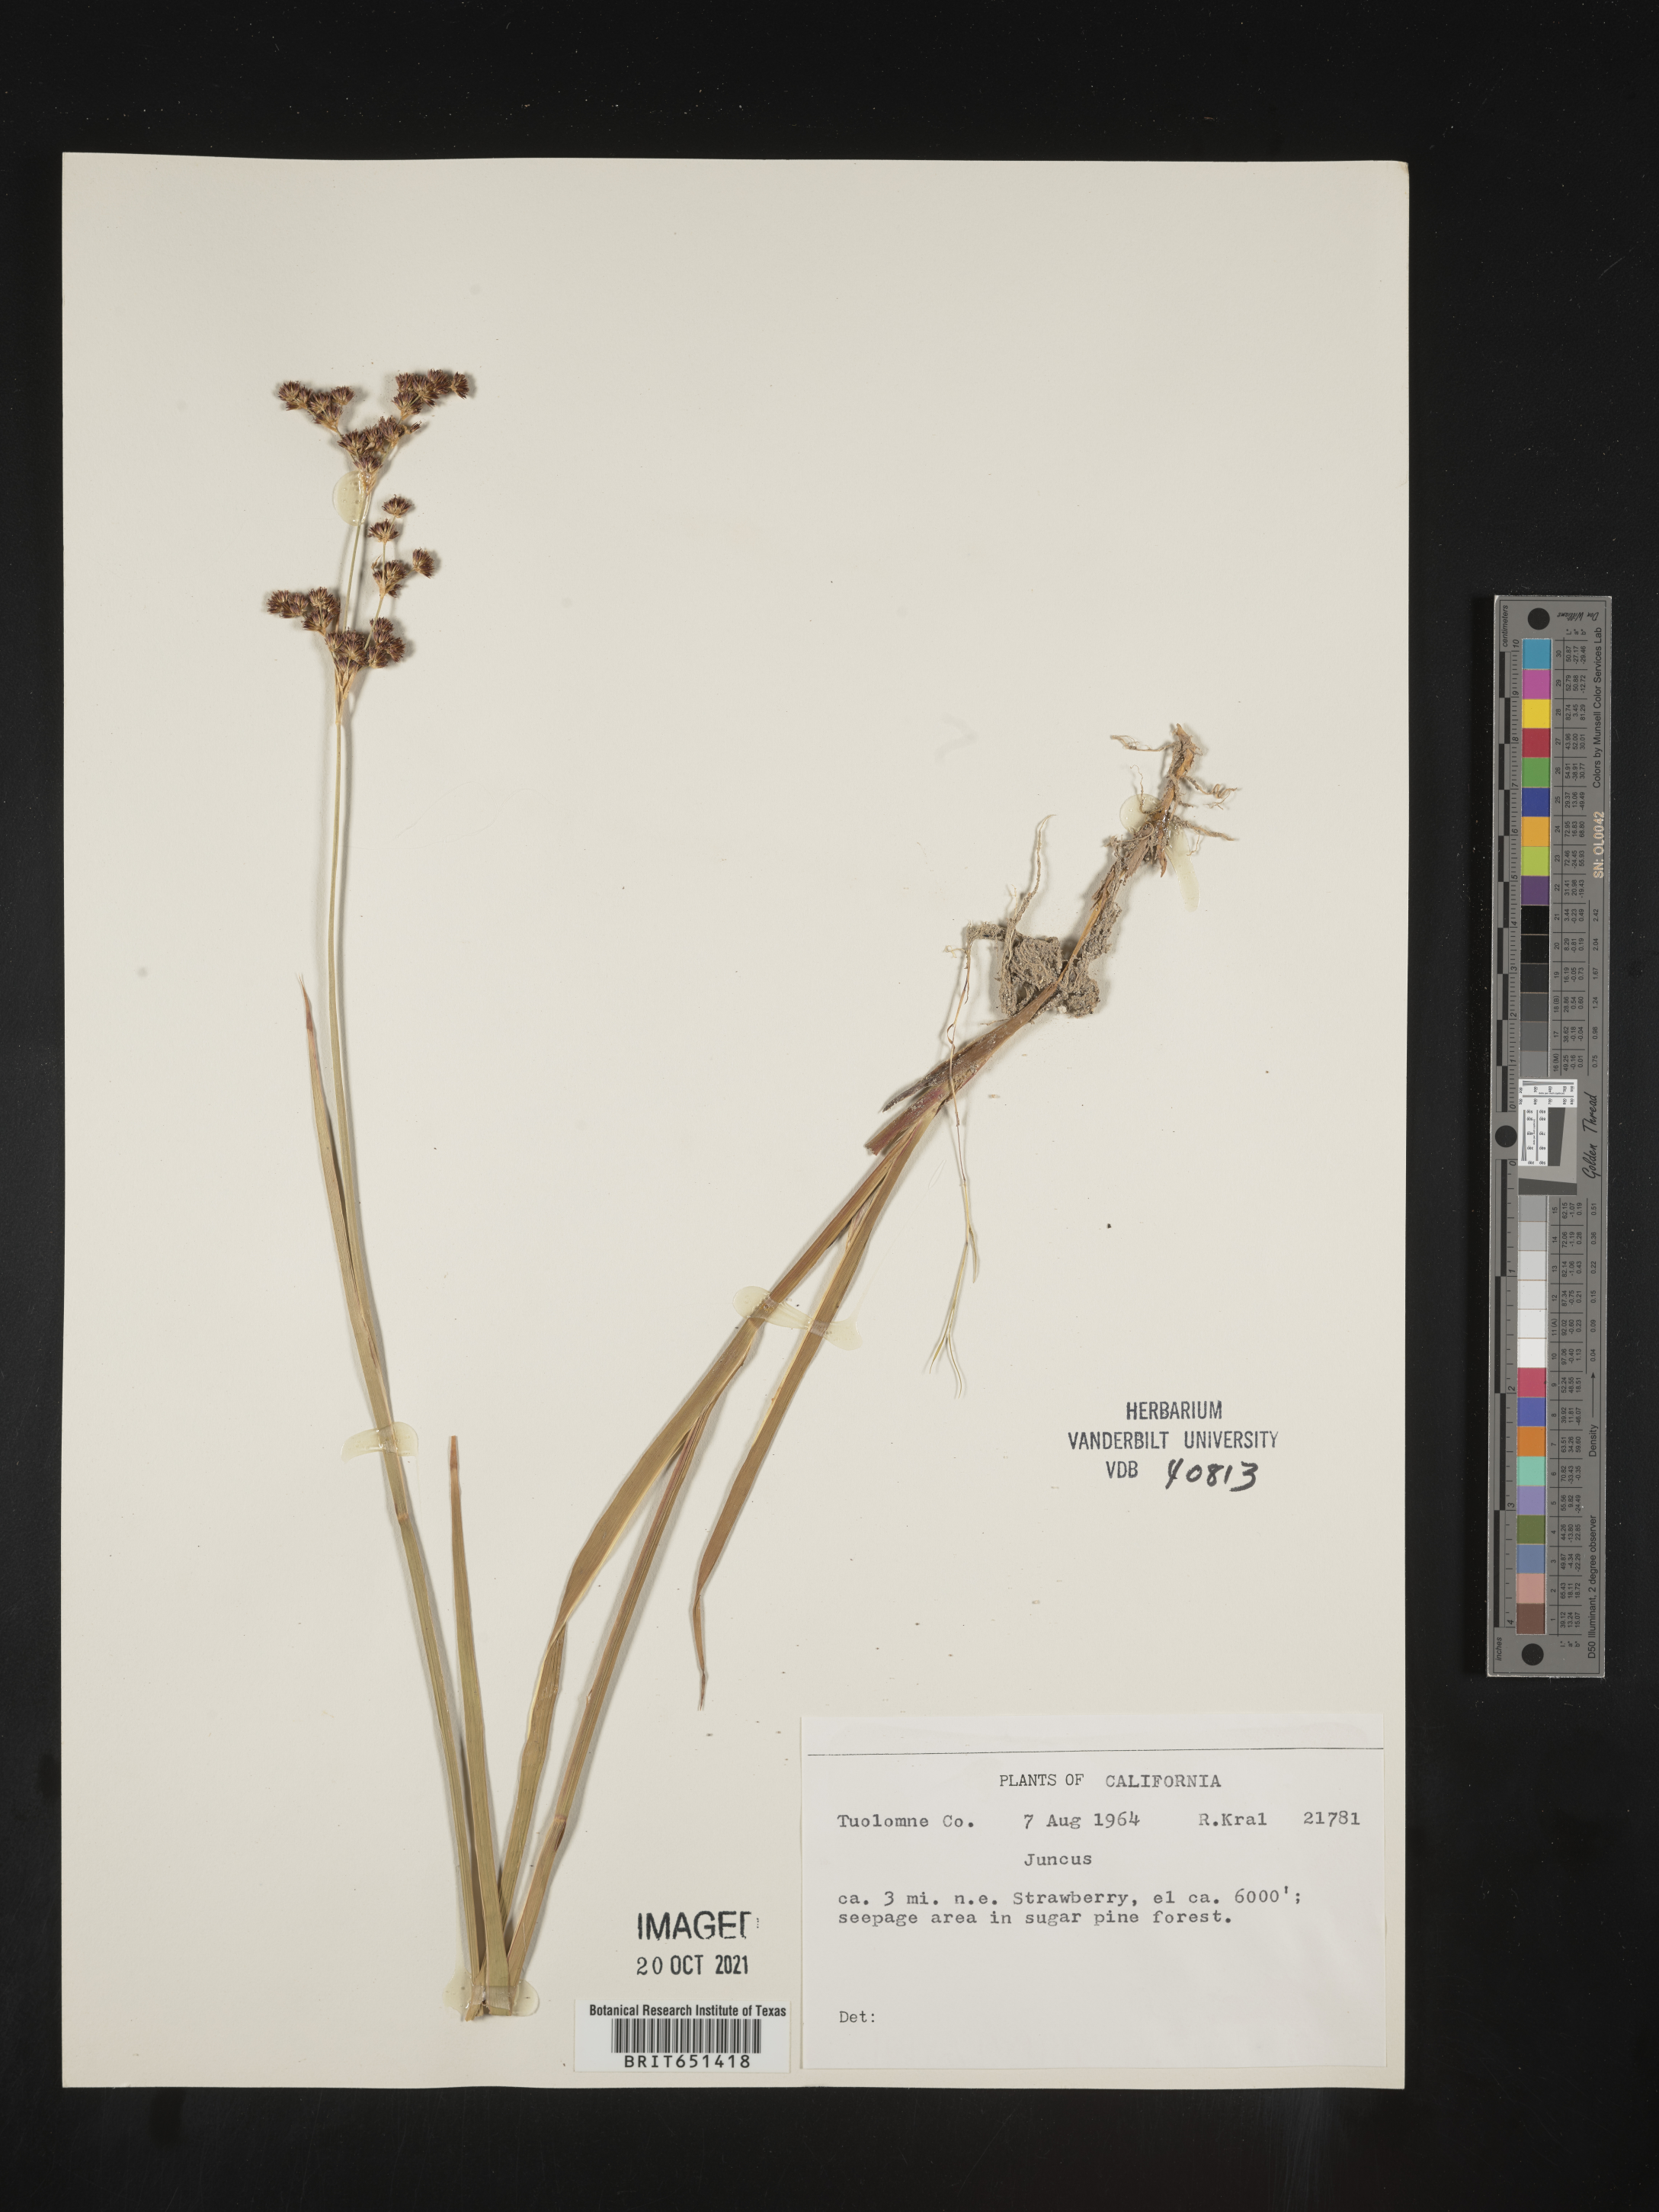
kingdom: Plantae
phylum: Tracheophyta
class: Liliopsida
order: Poales
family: Juncaceae
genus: Juncus
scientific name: Juncus
